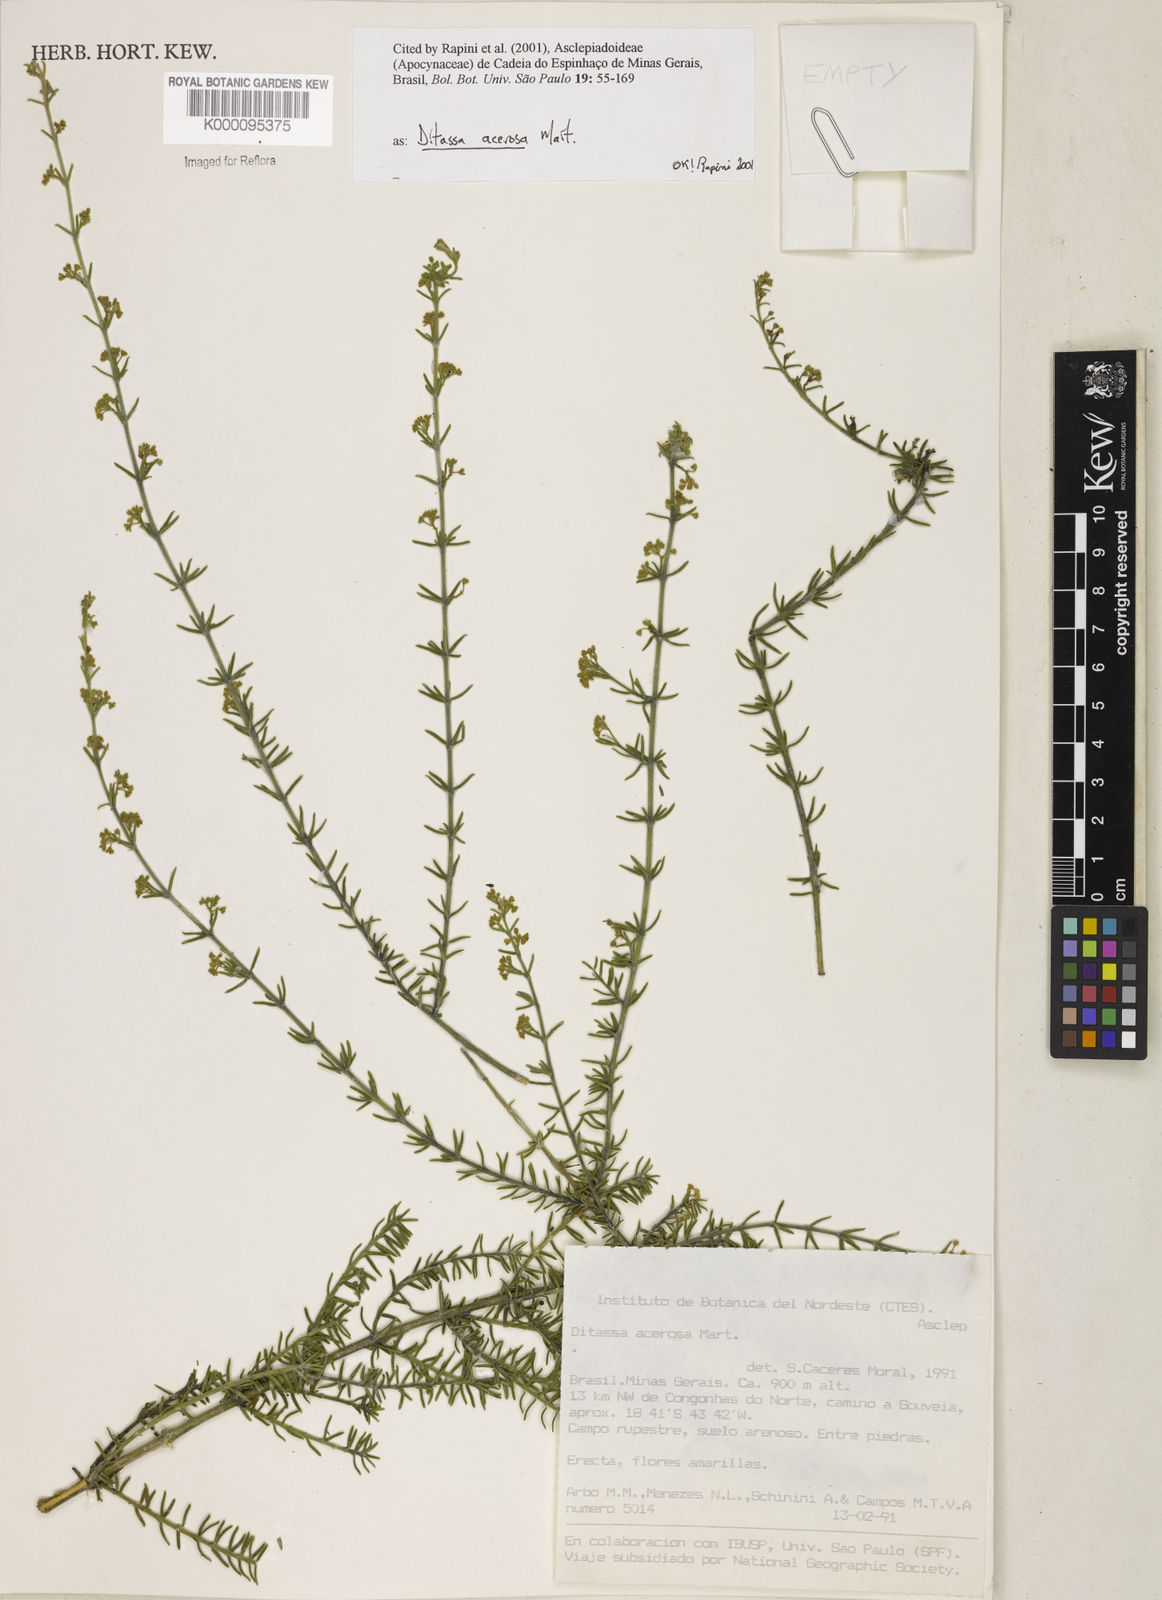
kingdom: Plantae
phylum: Tracheophyta
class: Magnoliopsida
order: Gentianales
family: Apocynaceae
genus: Minaria
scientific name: Minaria acerosa
